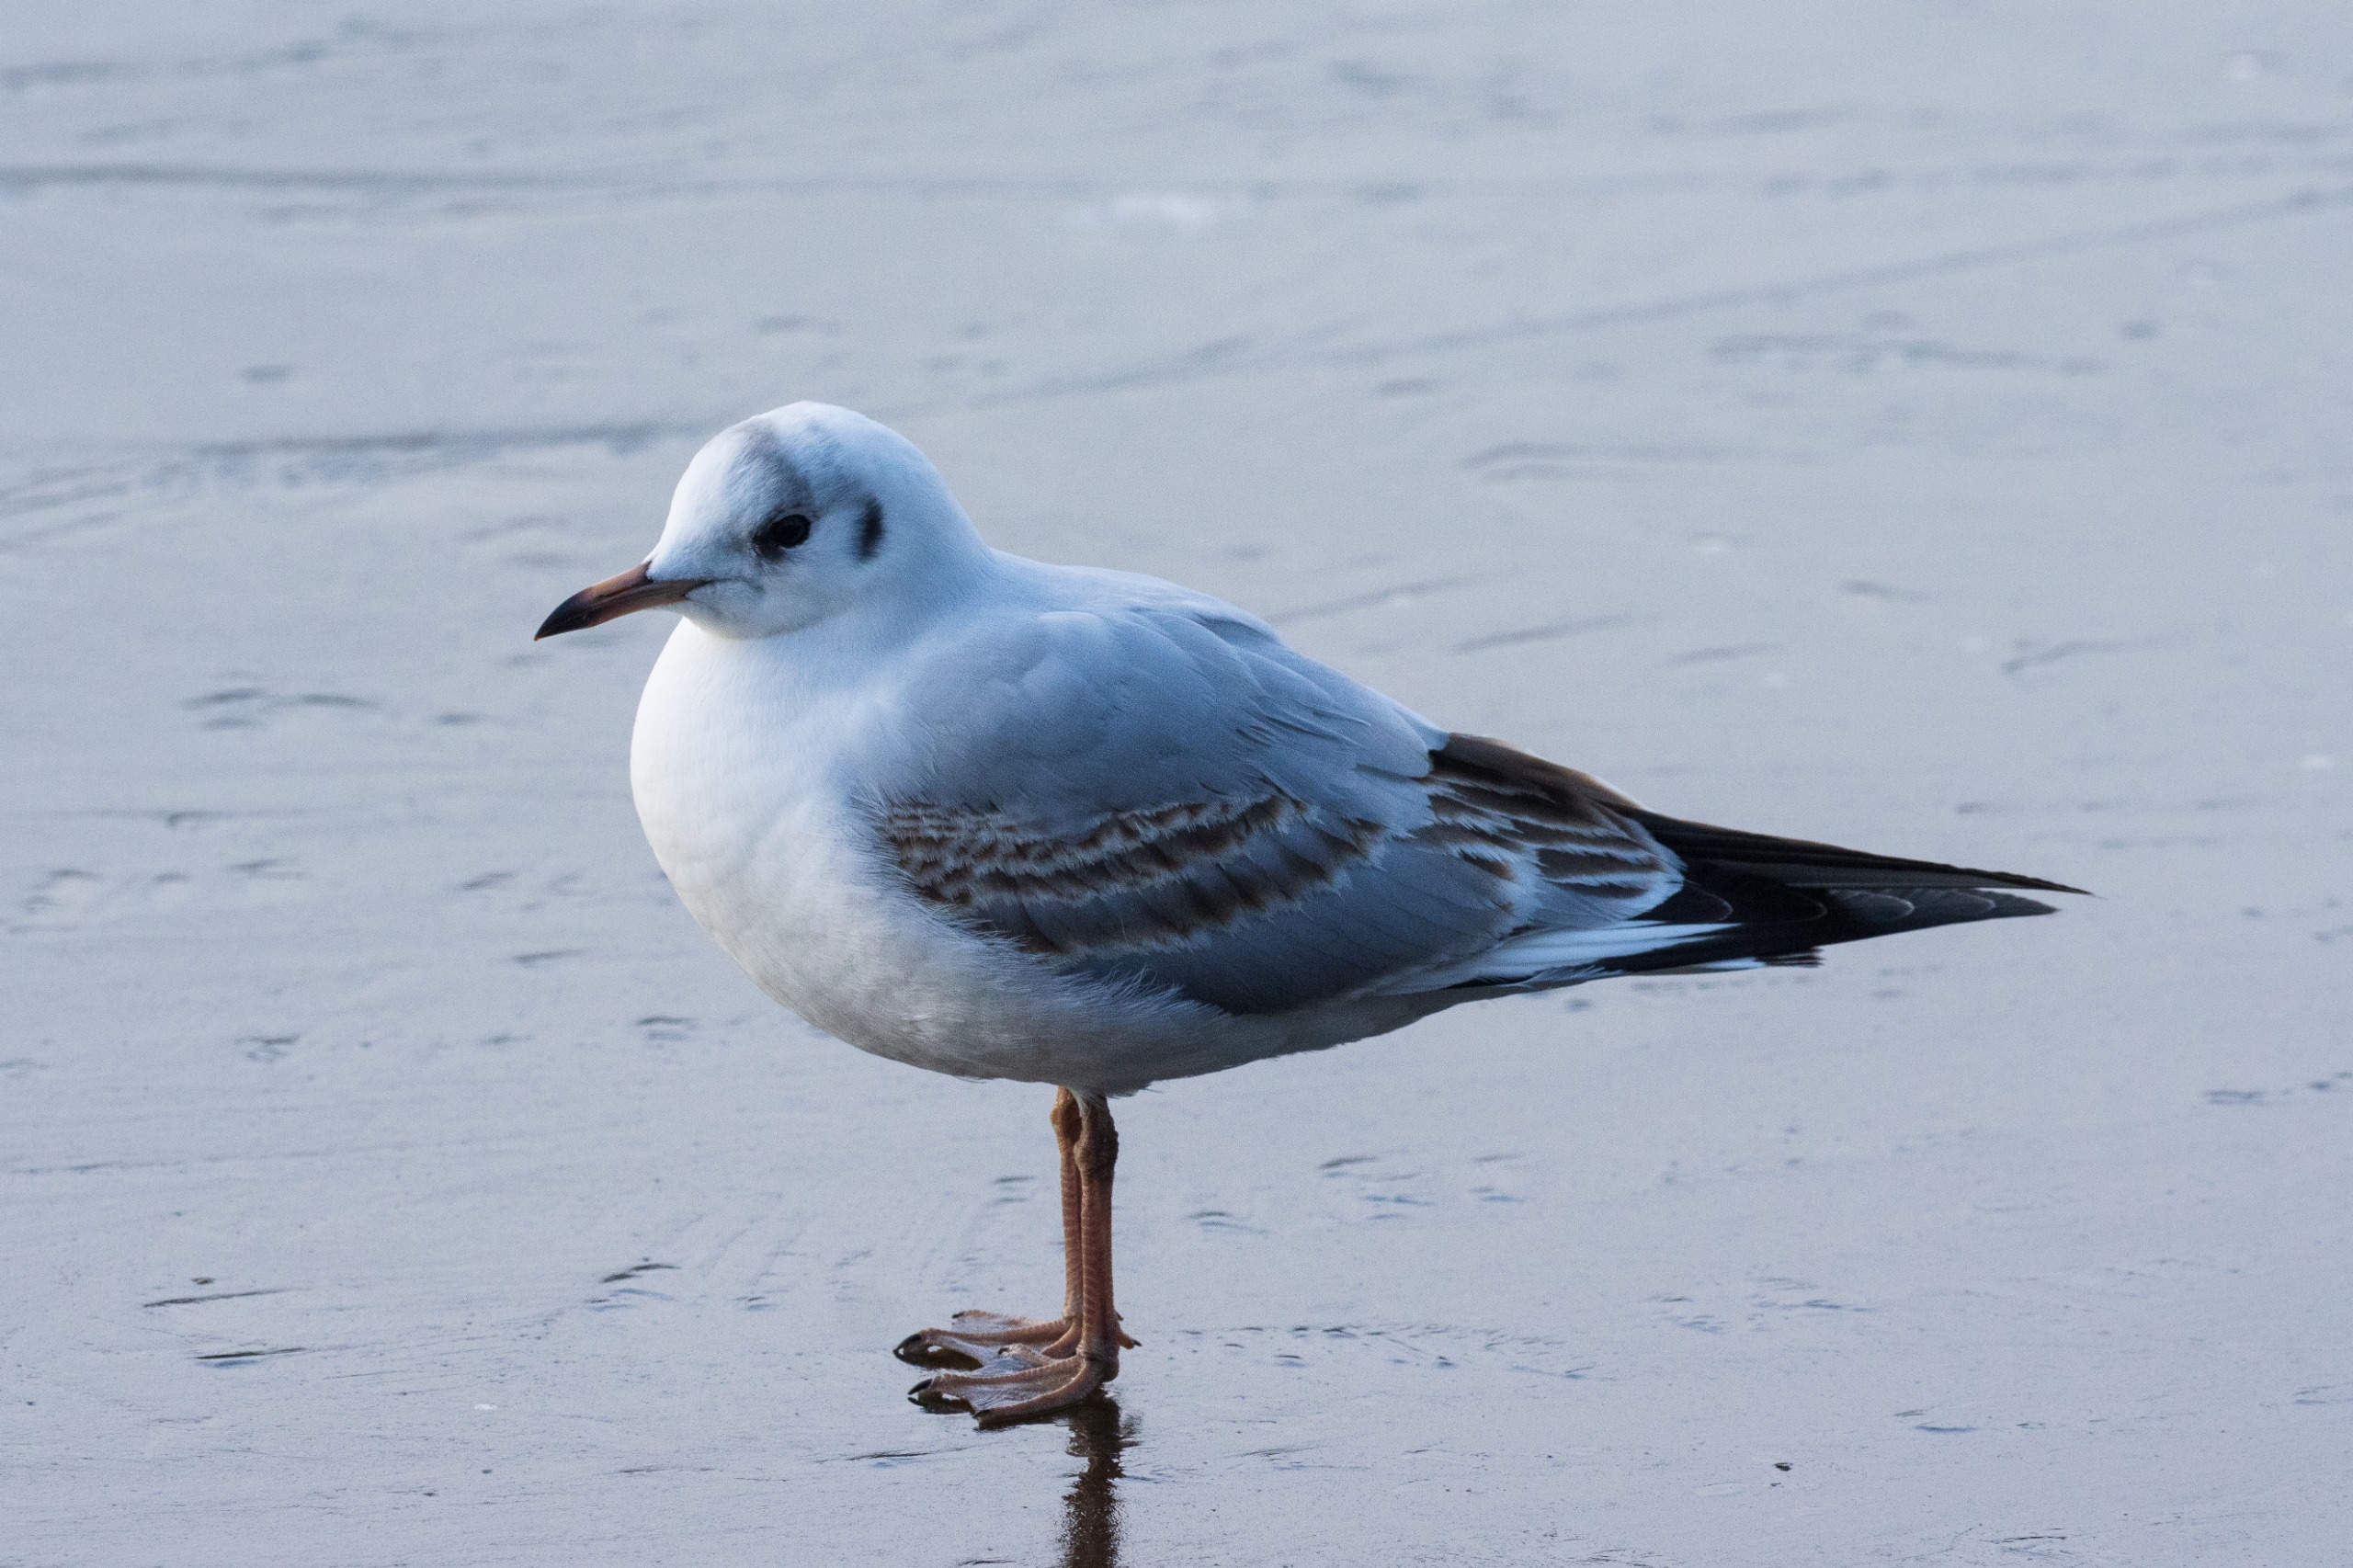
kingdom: Animalia
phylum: Chordata
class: Aves
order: Charadriiformes
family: Laridae
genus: Chroicocephalus
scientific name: Chroicocephalus ridibundus
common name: Hættemåge
